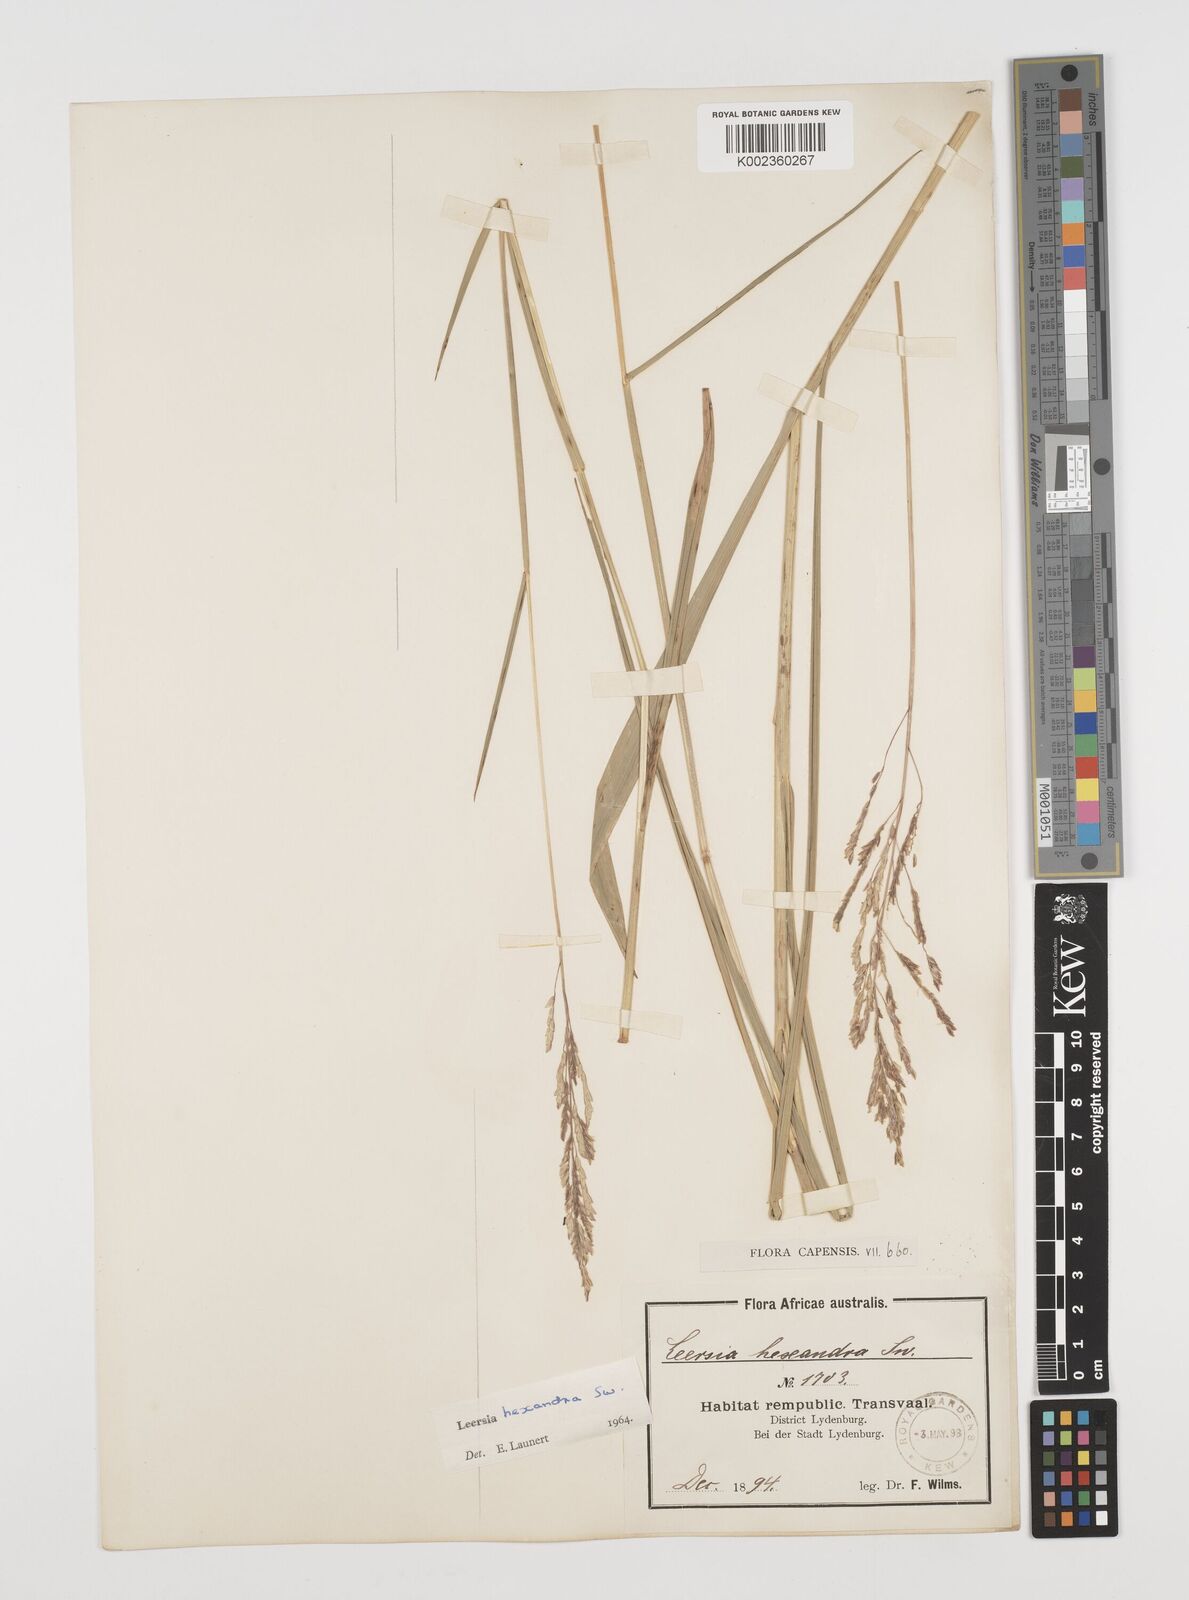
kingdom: Plantae
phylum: Tracheophyta
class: Liliopsida
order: Poales
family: Poaceae
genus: Leersia
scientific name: Leersia hexandra
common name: Southern cut grass
